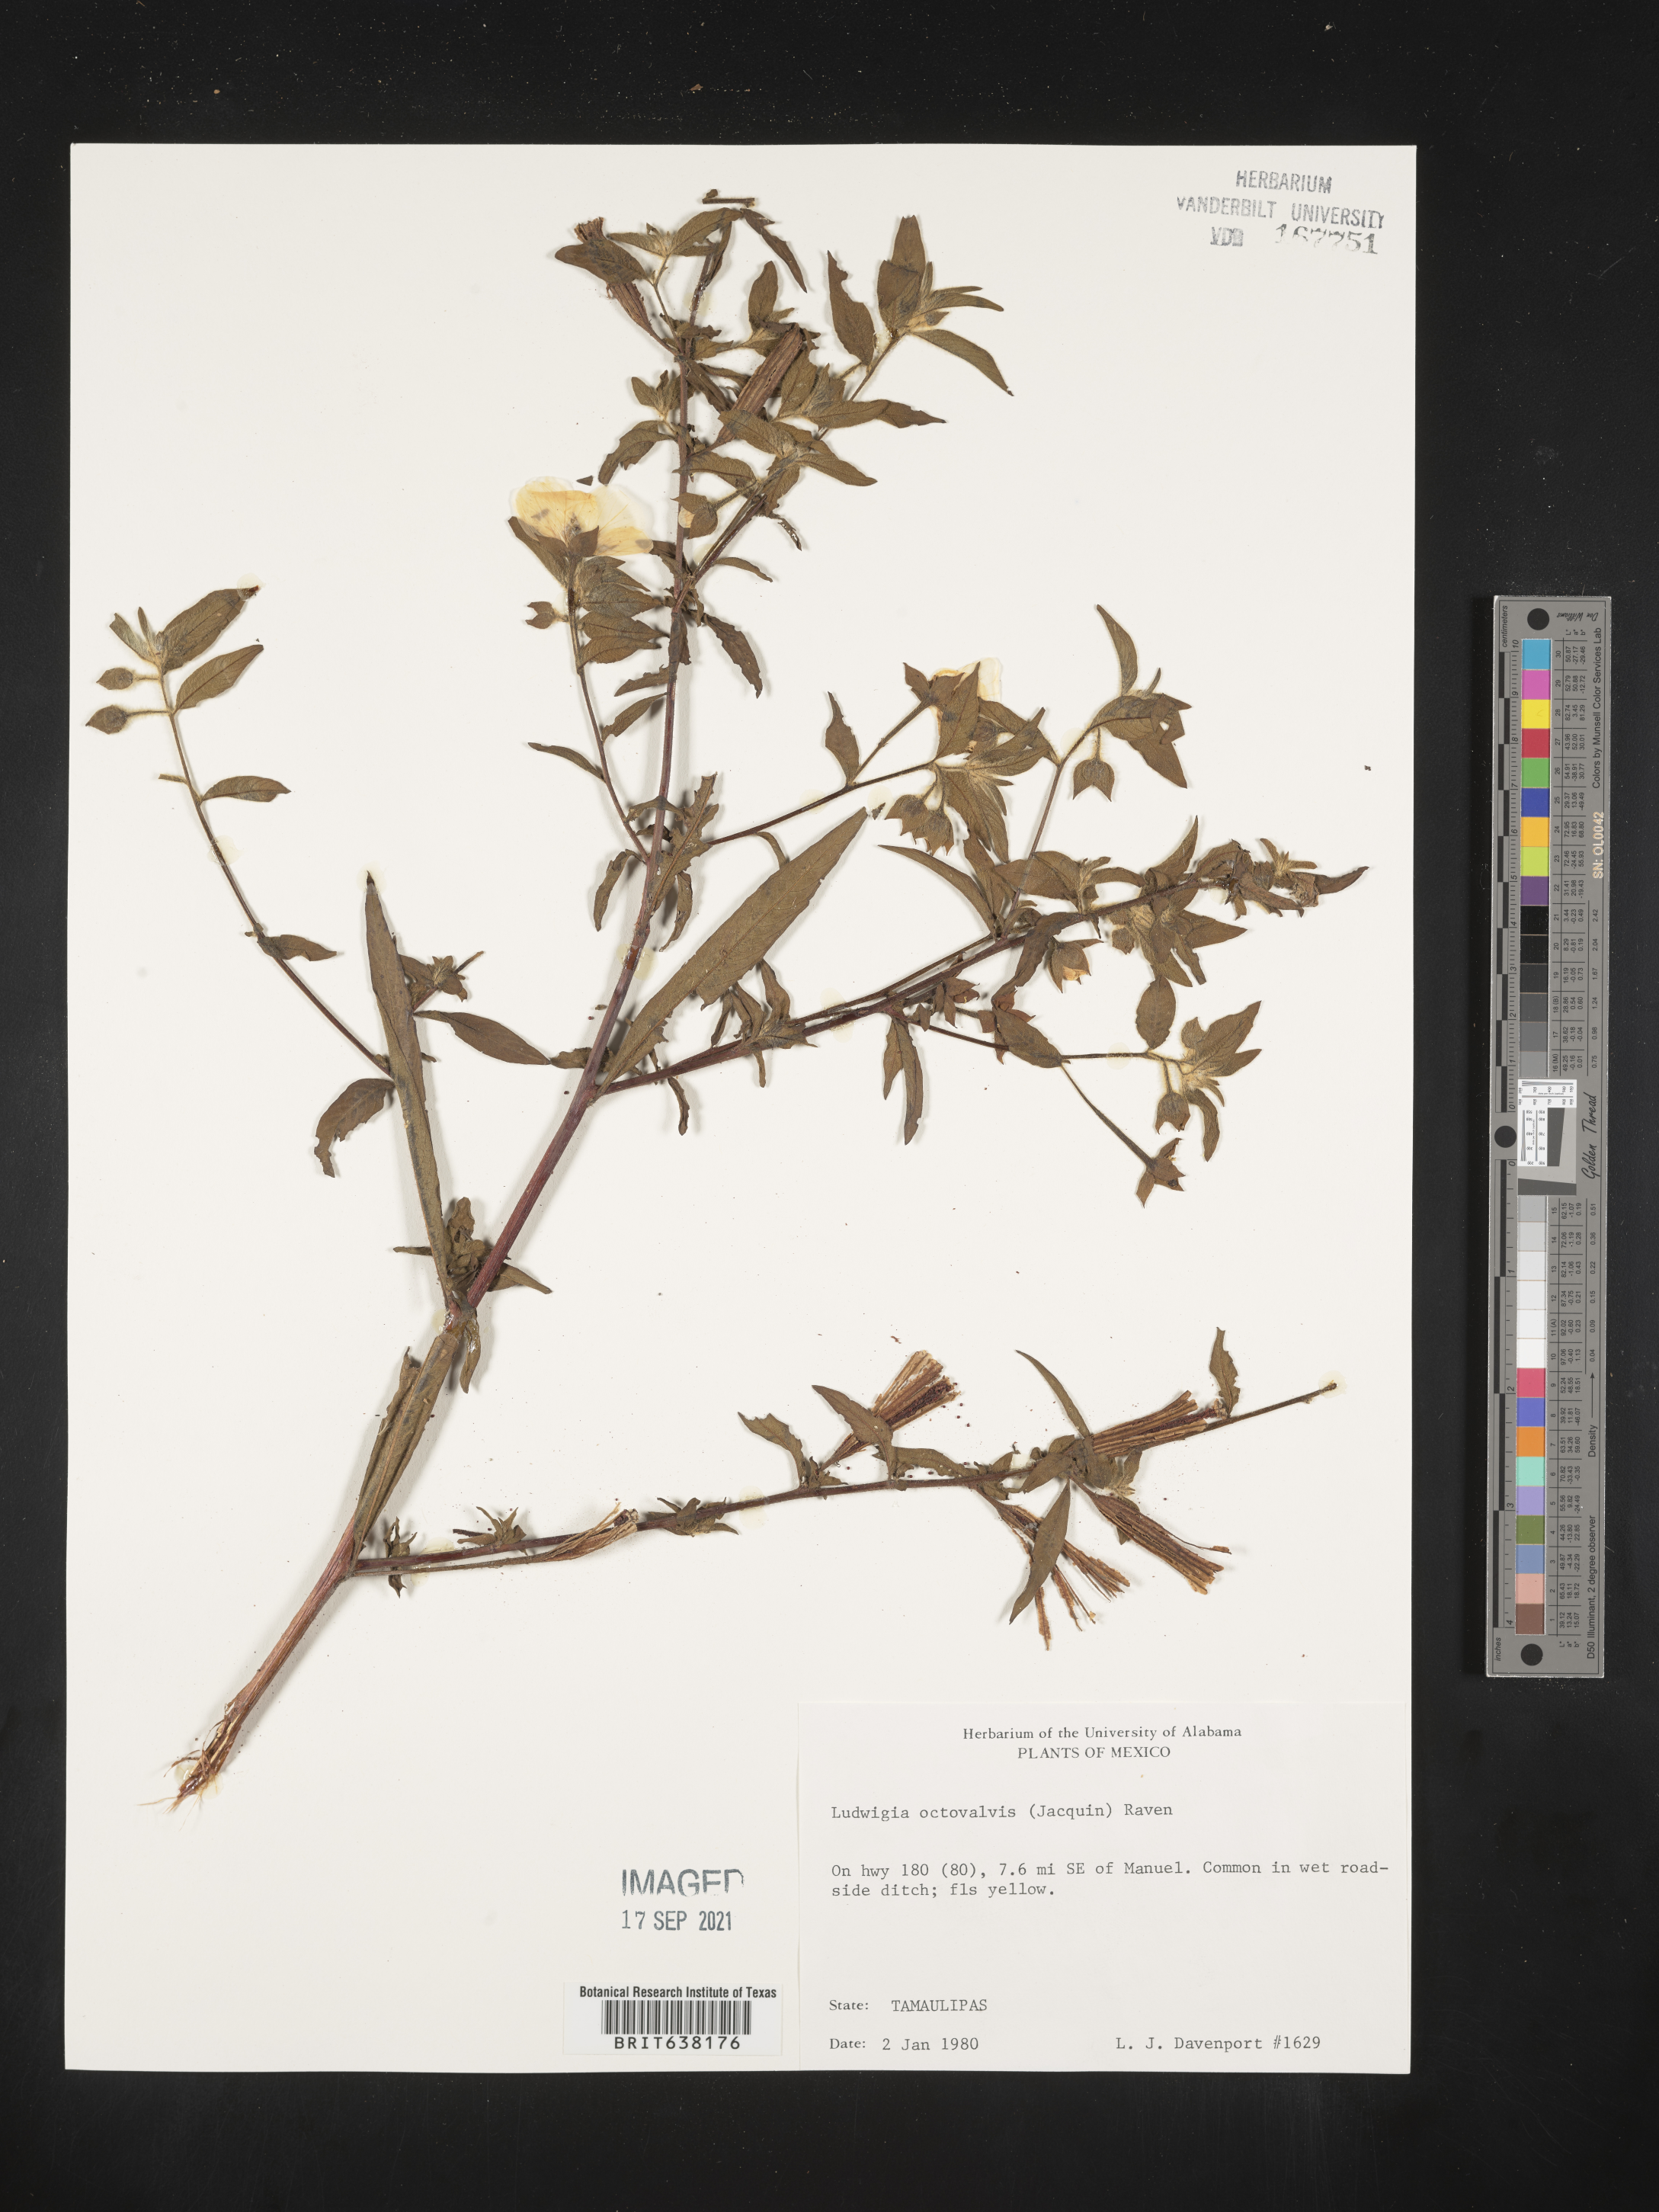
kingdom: Plantae
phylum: Tracheophyta
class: Magnoliopsida
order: Myrtales
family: Onagraceae
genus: Ludwigia
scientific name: Ludwigia
